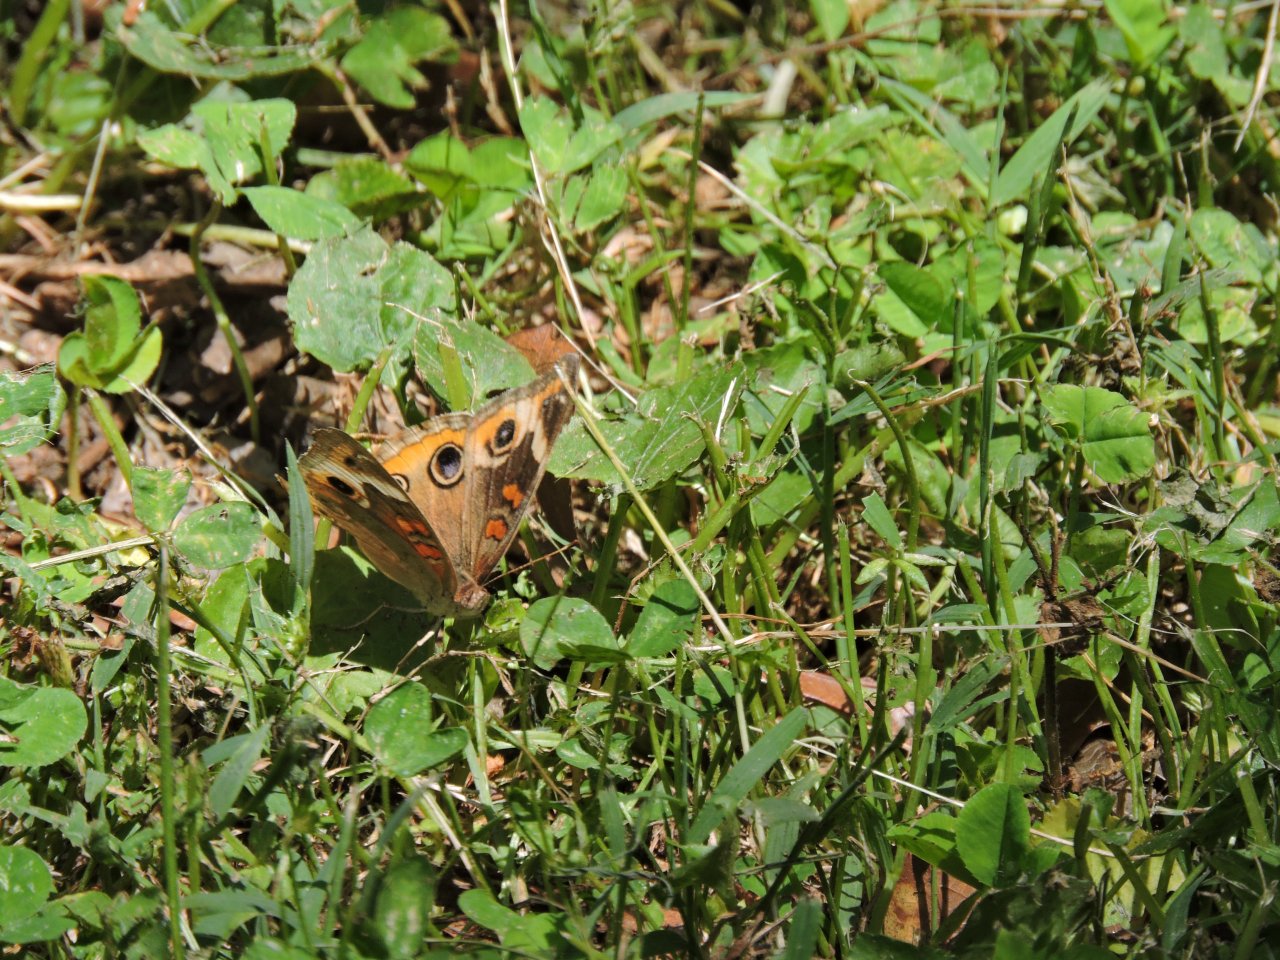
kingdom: Animalia
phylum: Arthropoda
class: Insecta
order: Lepidoptera
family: Nymphalidae
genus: Junonia
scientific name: Junonia coenia
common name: Common Buckeye
